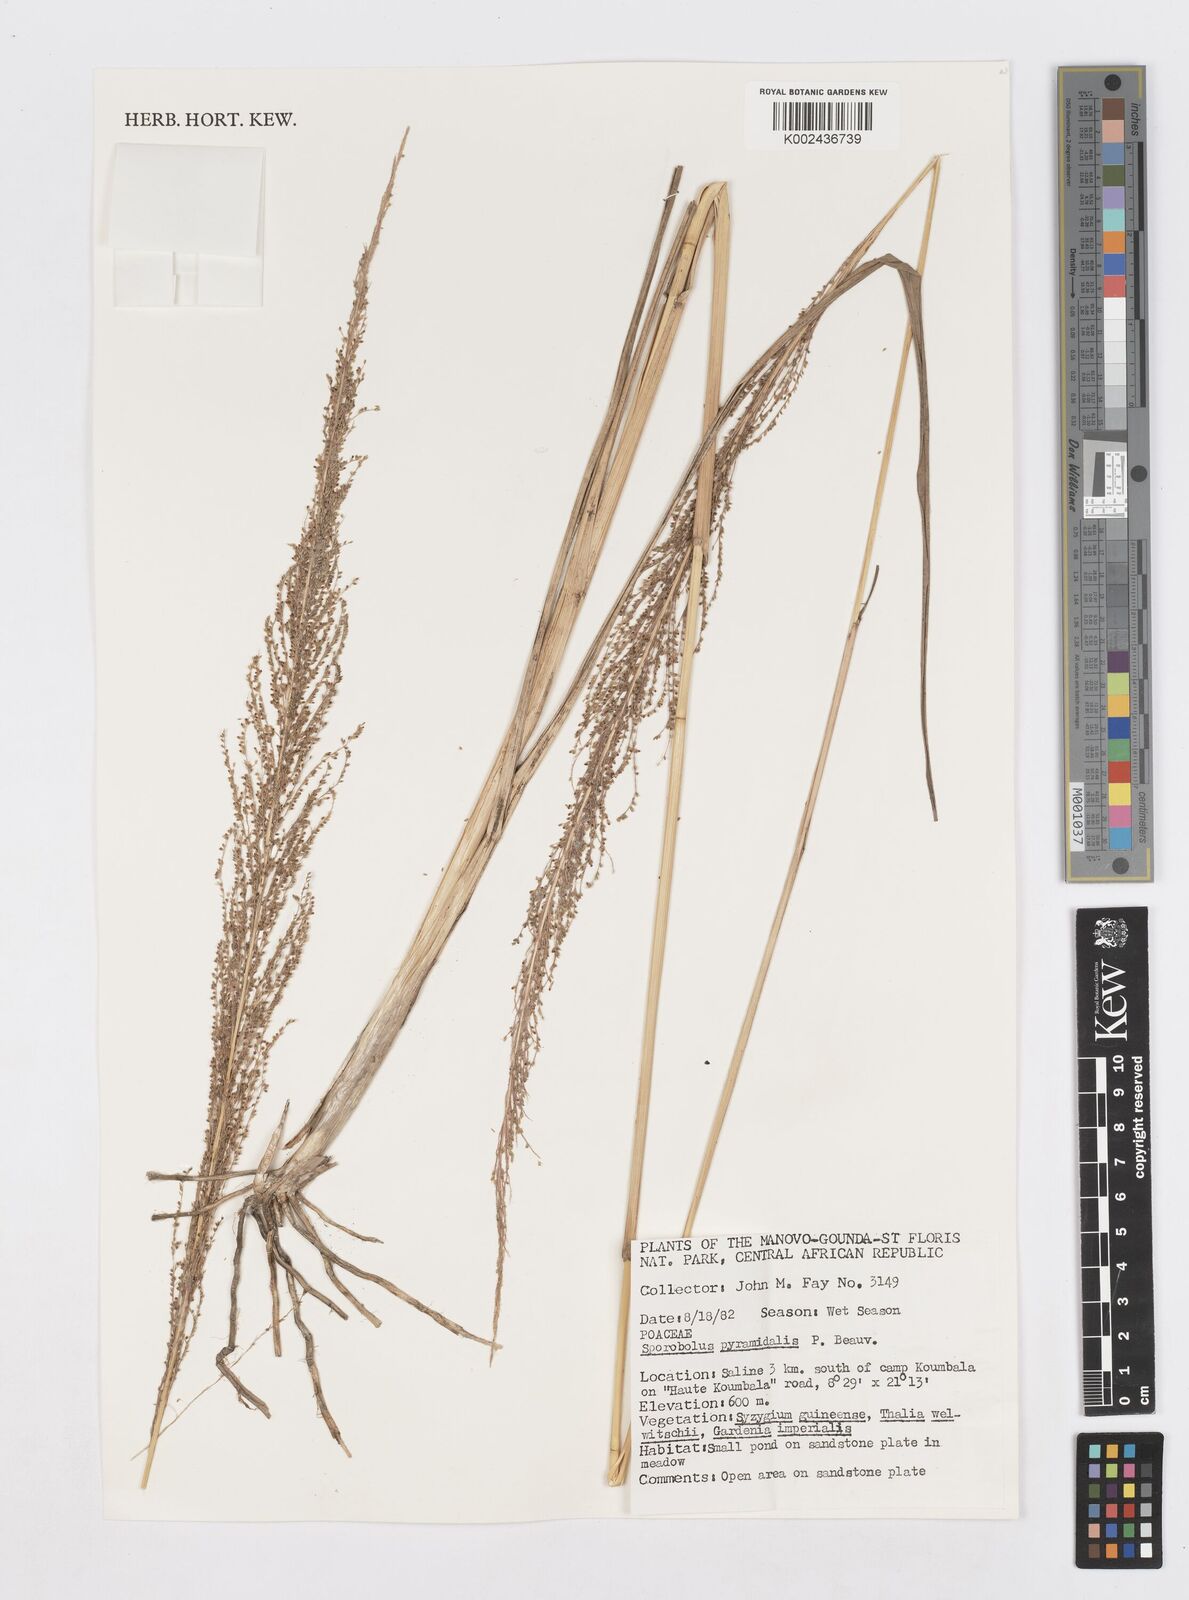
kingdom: Plantae
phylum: Tracheophyta
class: Liliopsida
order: Poales
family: Poaceae
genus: Sporobolus
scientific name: Sporobolus pyramidalis
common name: West indian dropseed
